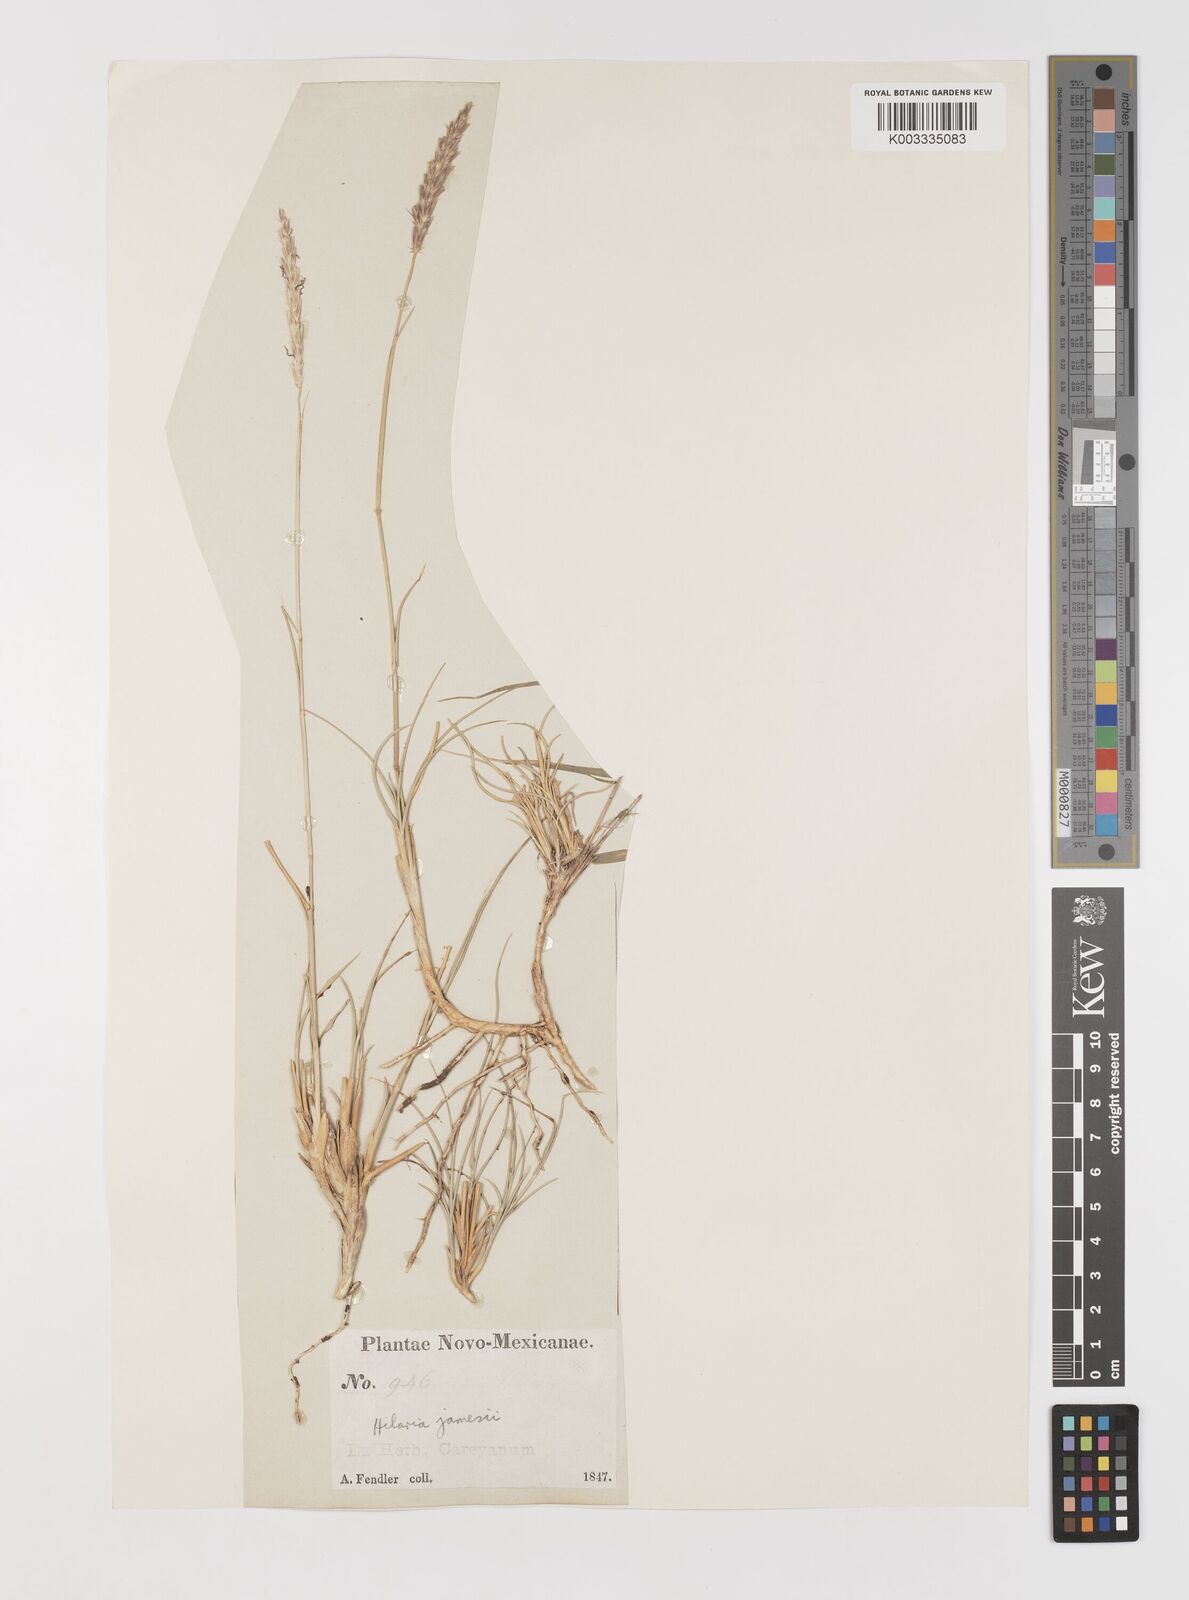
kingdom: Plantae
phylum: Tracheophyta
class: Liliopsida
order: Poales
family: Poaceae
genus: Hilaria
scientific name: Hilaria jamesii
